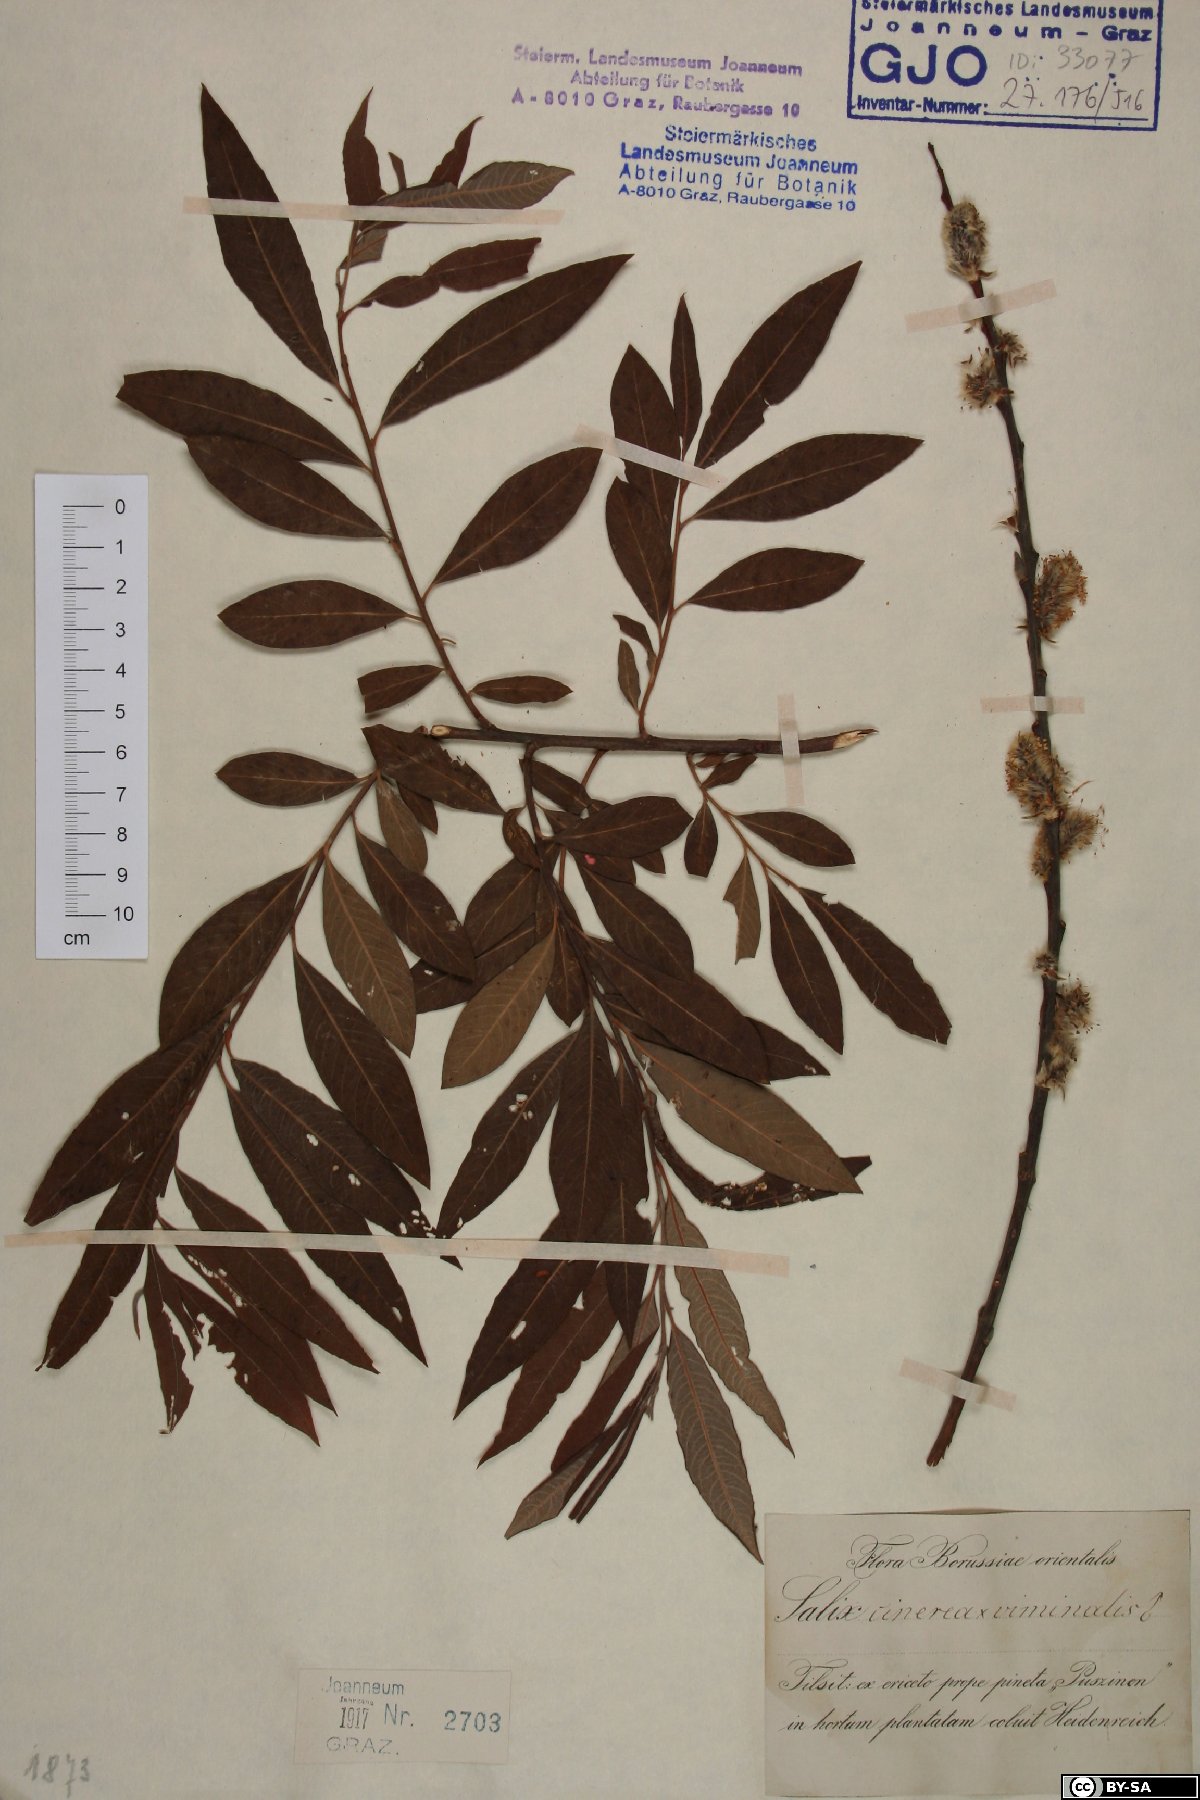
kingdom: Plantae
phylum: Tracheophyta
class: Magnoliopsida
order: Malpighiales
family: Salicaceae
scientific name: Salicaceae
